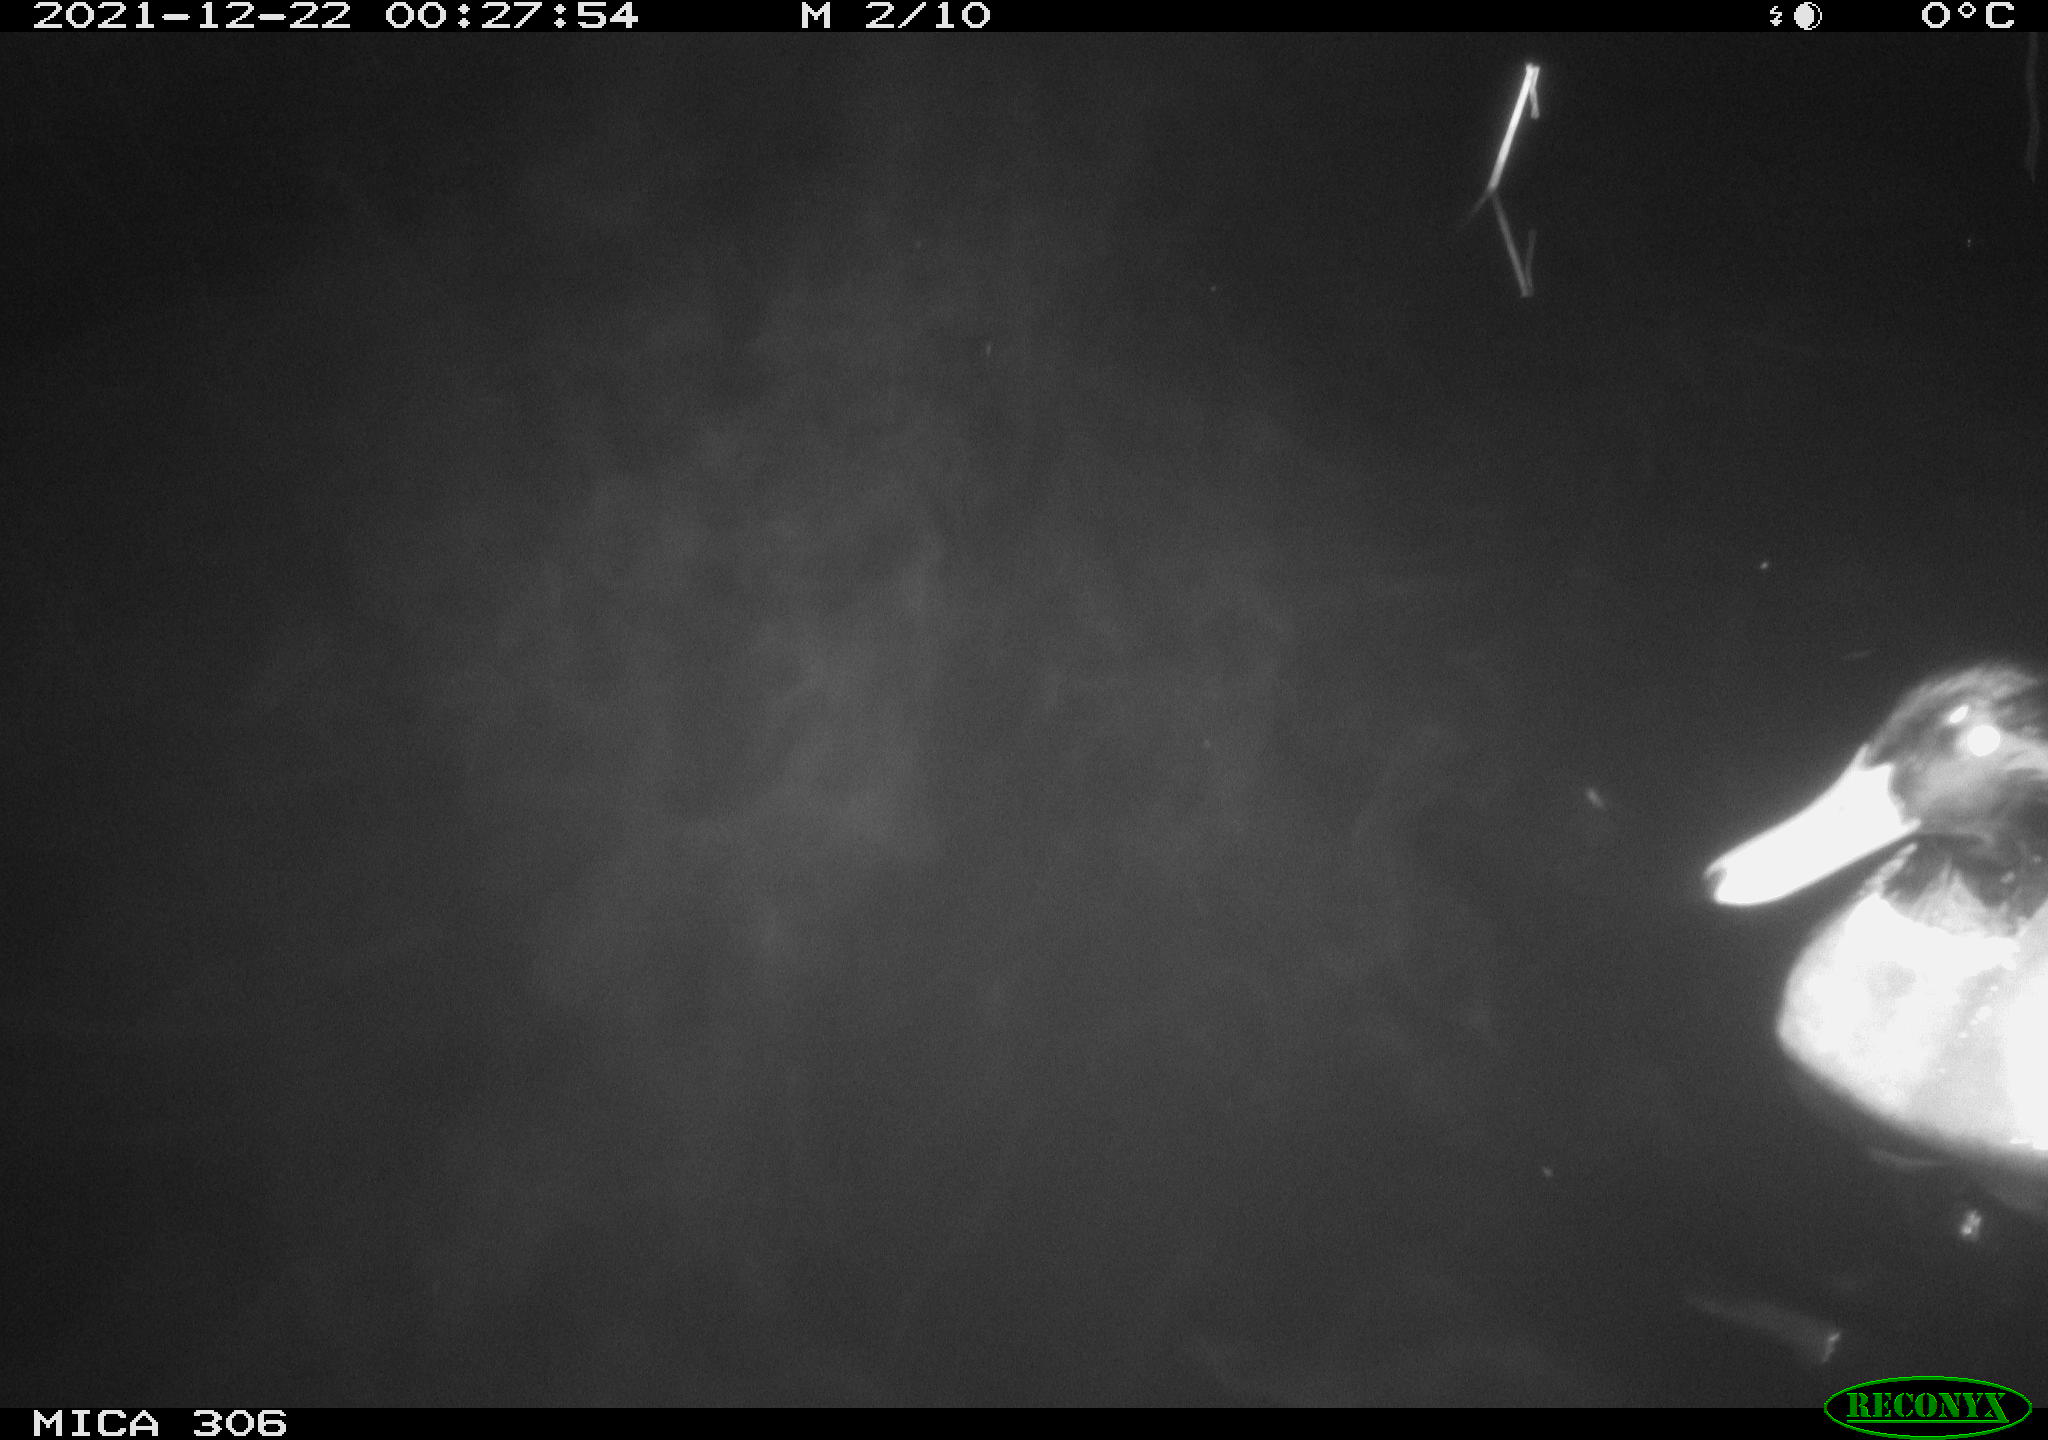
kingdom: Animalia
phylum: Chordata
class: Aves
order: Anseriformes
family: Anatidae
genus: Anas
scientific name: Anas
